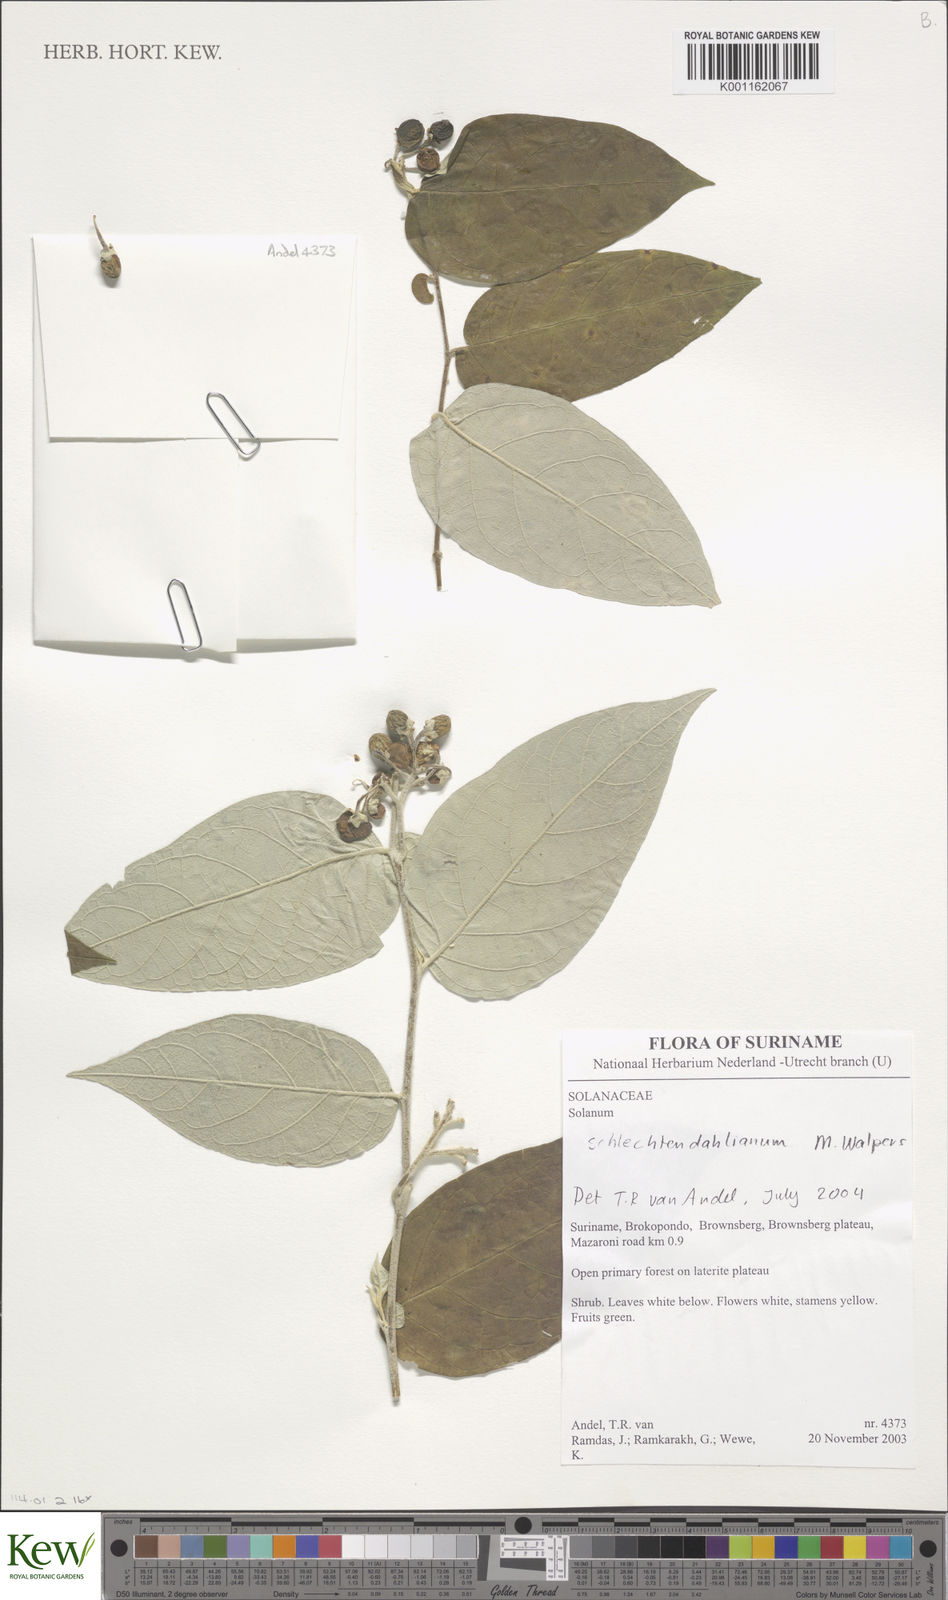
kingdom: Plantae
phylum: Tracheophyta
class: Magnoliopsida
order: Solanales
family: Solanaceae
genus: Solanum
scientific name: Solanum schlechtendalianum
